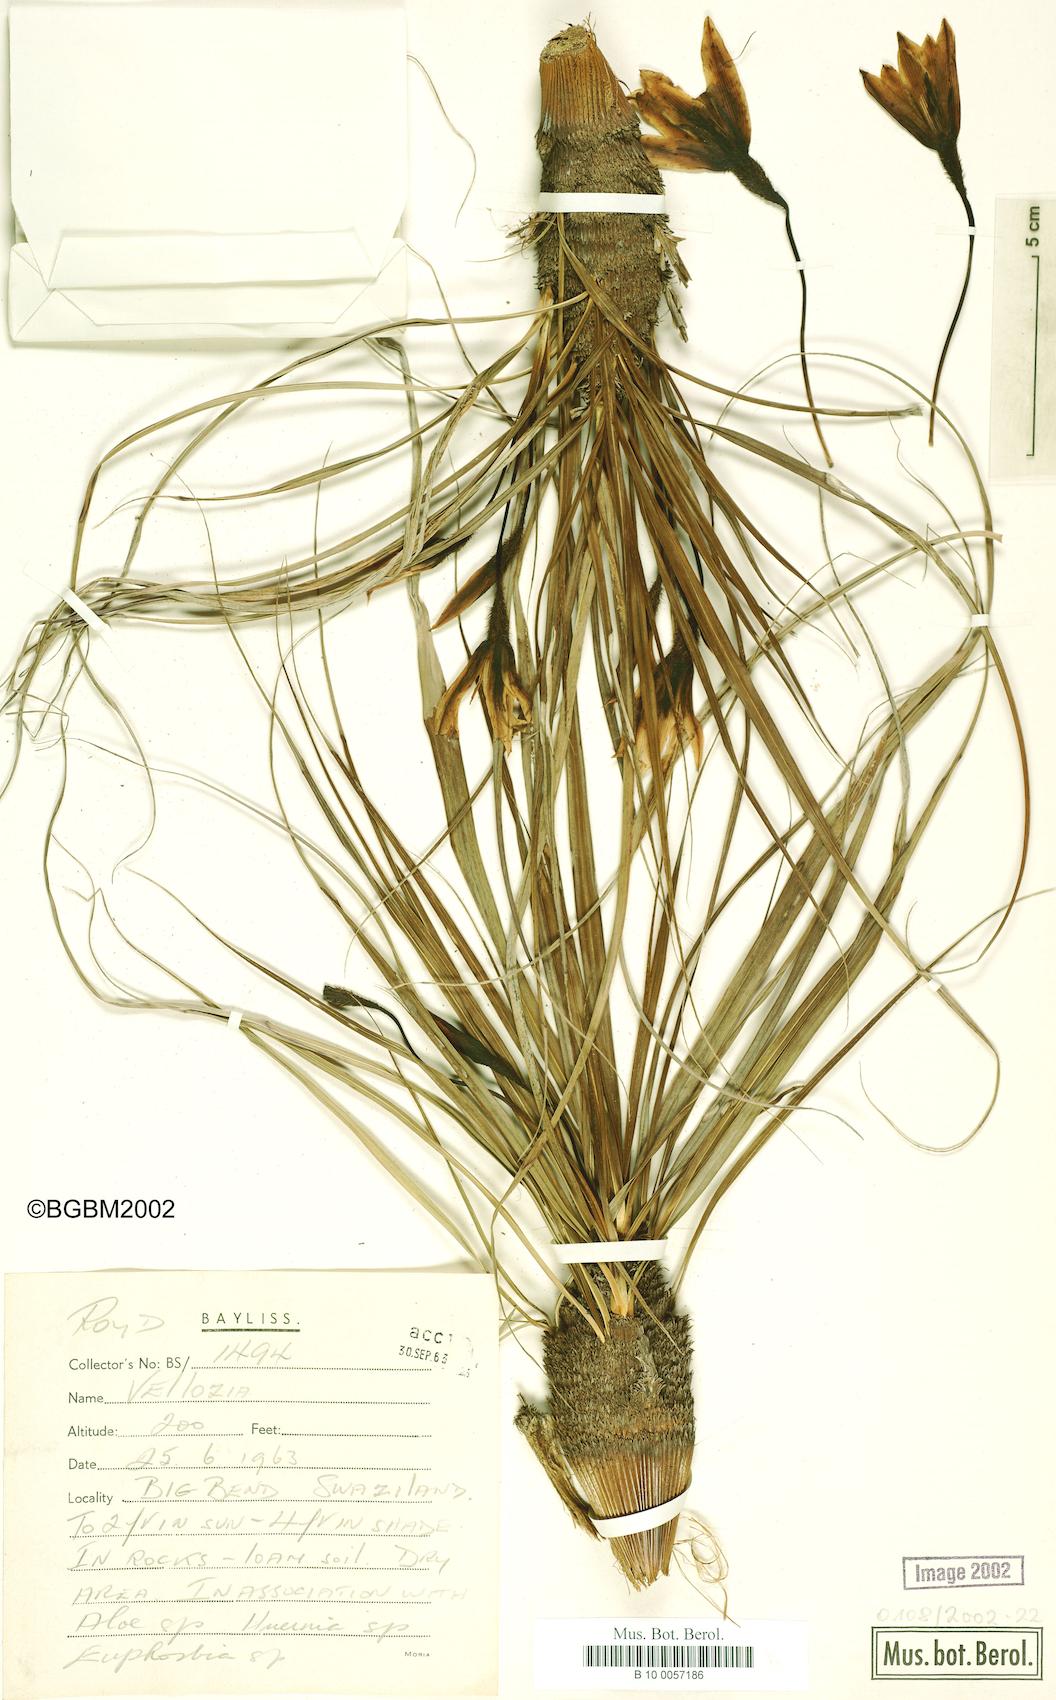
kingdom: Plantae
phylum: Tracheophyta
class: Liliopsida
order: Pandanales
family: Velloziaceae
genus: Vellozia
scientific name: Vellozia
